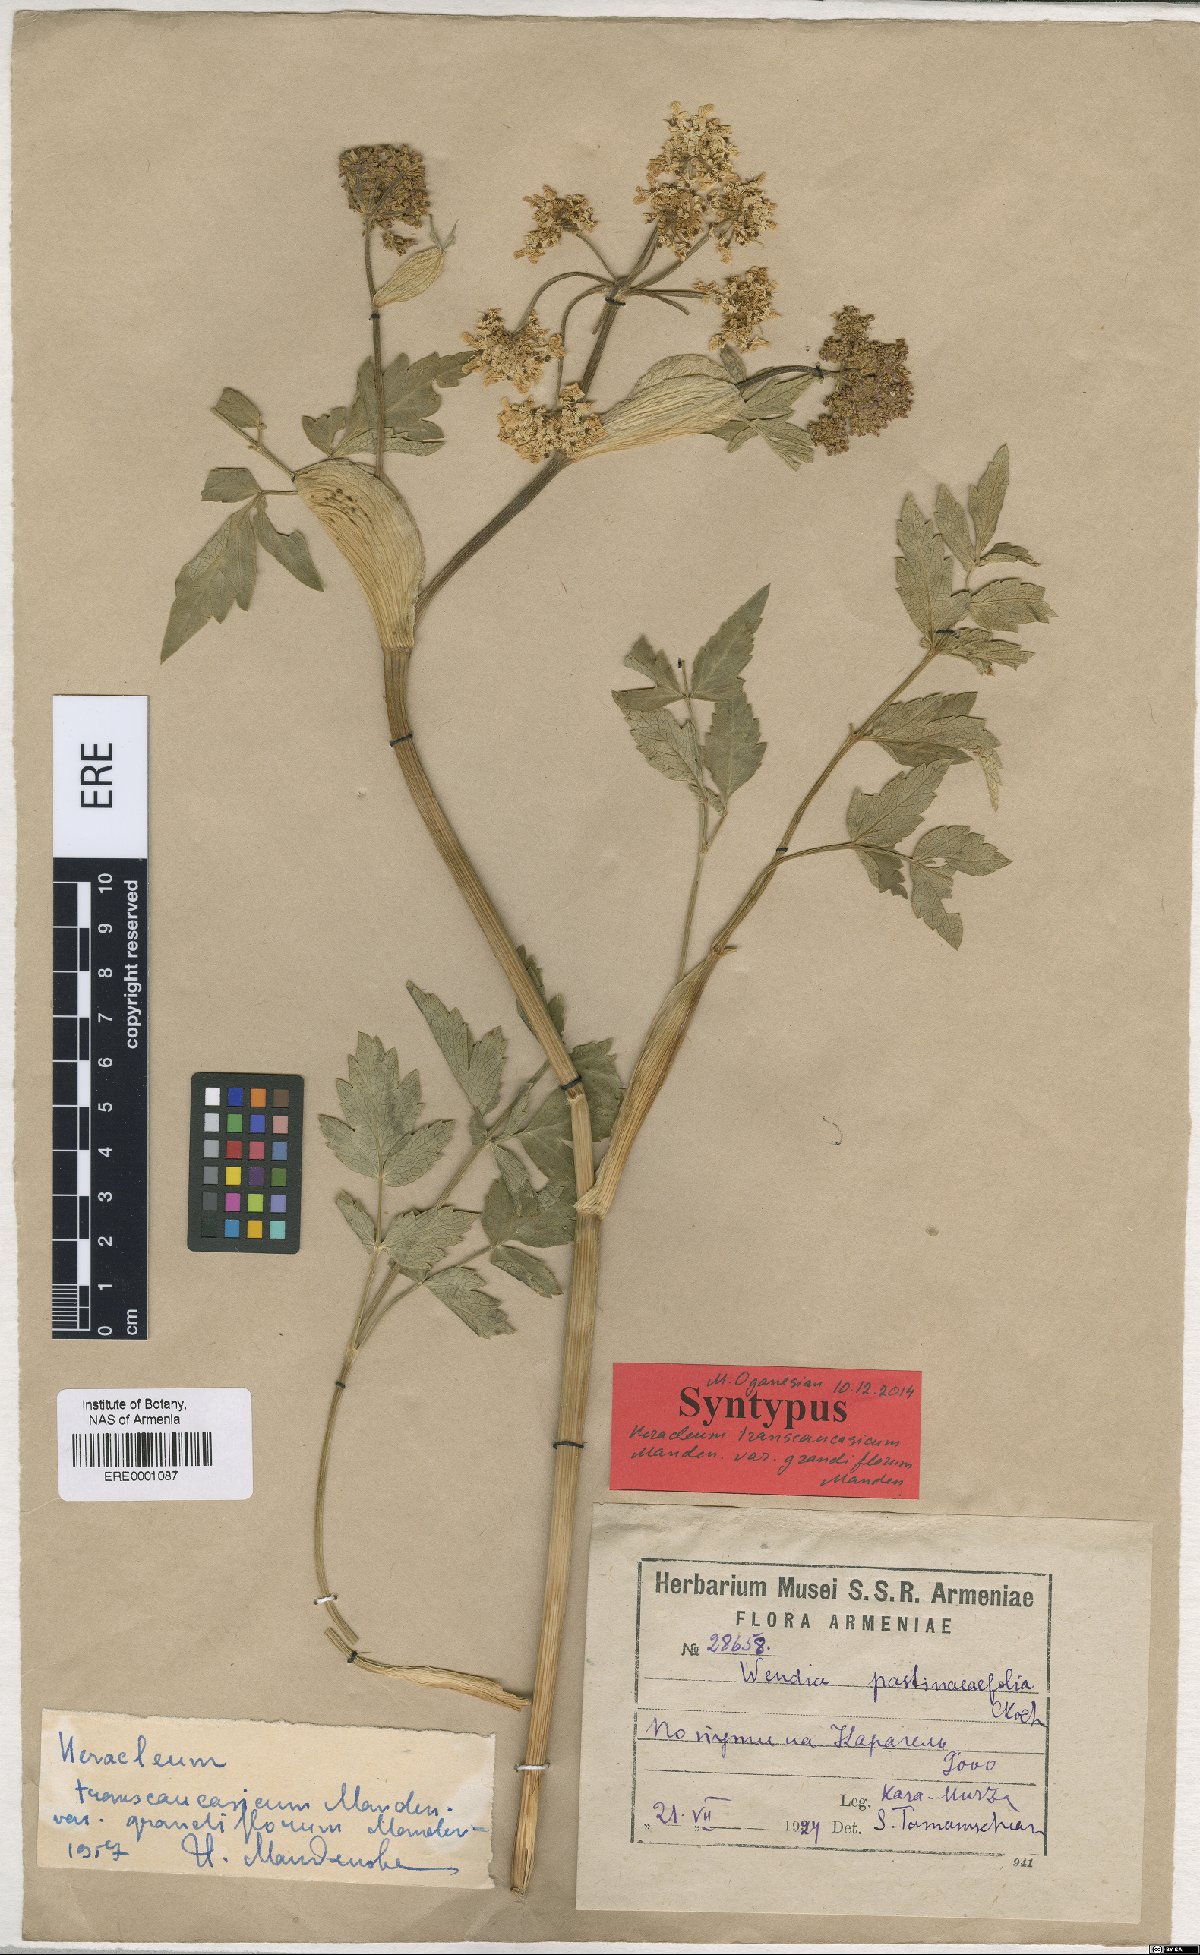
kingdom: Plantae
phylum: Tracheophyta
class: Magnoliopsida
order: Apiales
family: Apiaceae
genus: Heracleum
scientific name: Heracleum pastinacifolium
